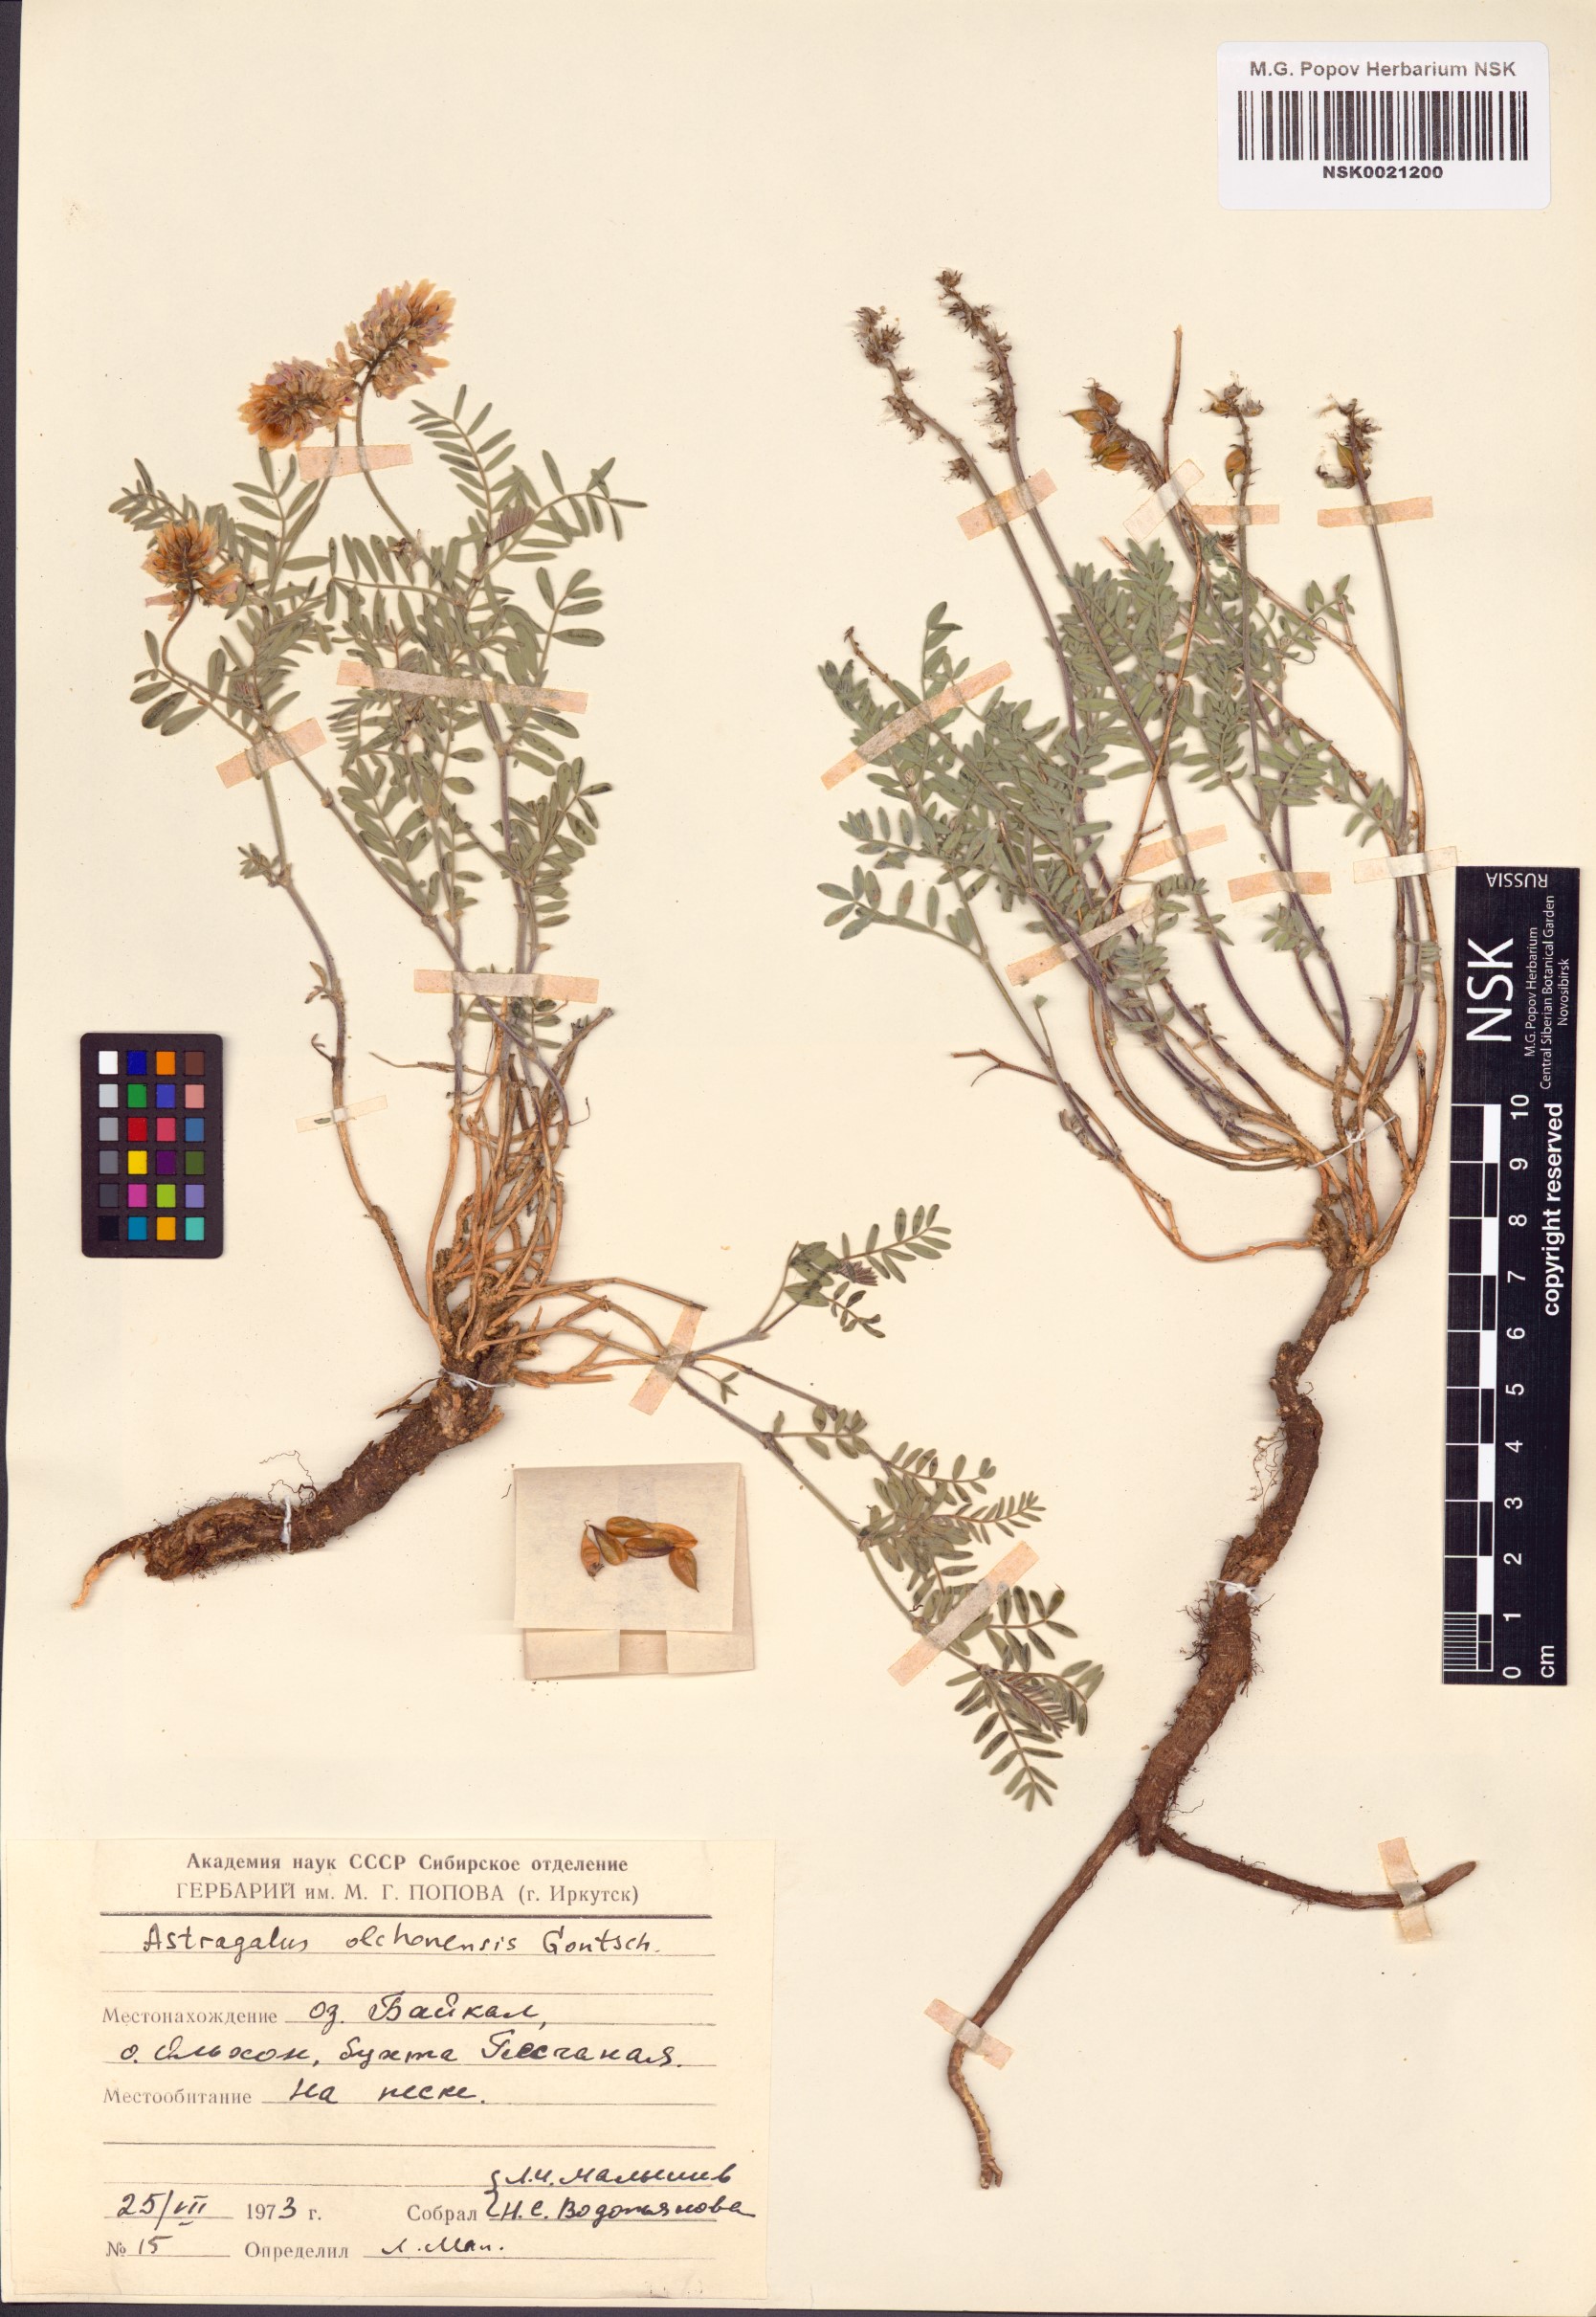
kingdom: Plantae
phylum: Tracheophyta
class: Magnoliopsida
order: Fabales
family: Fabaceae
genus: Astragalus
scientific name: Astragalus olchonensis
